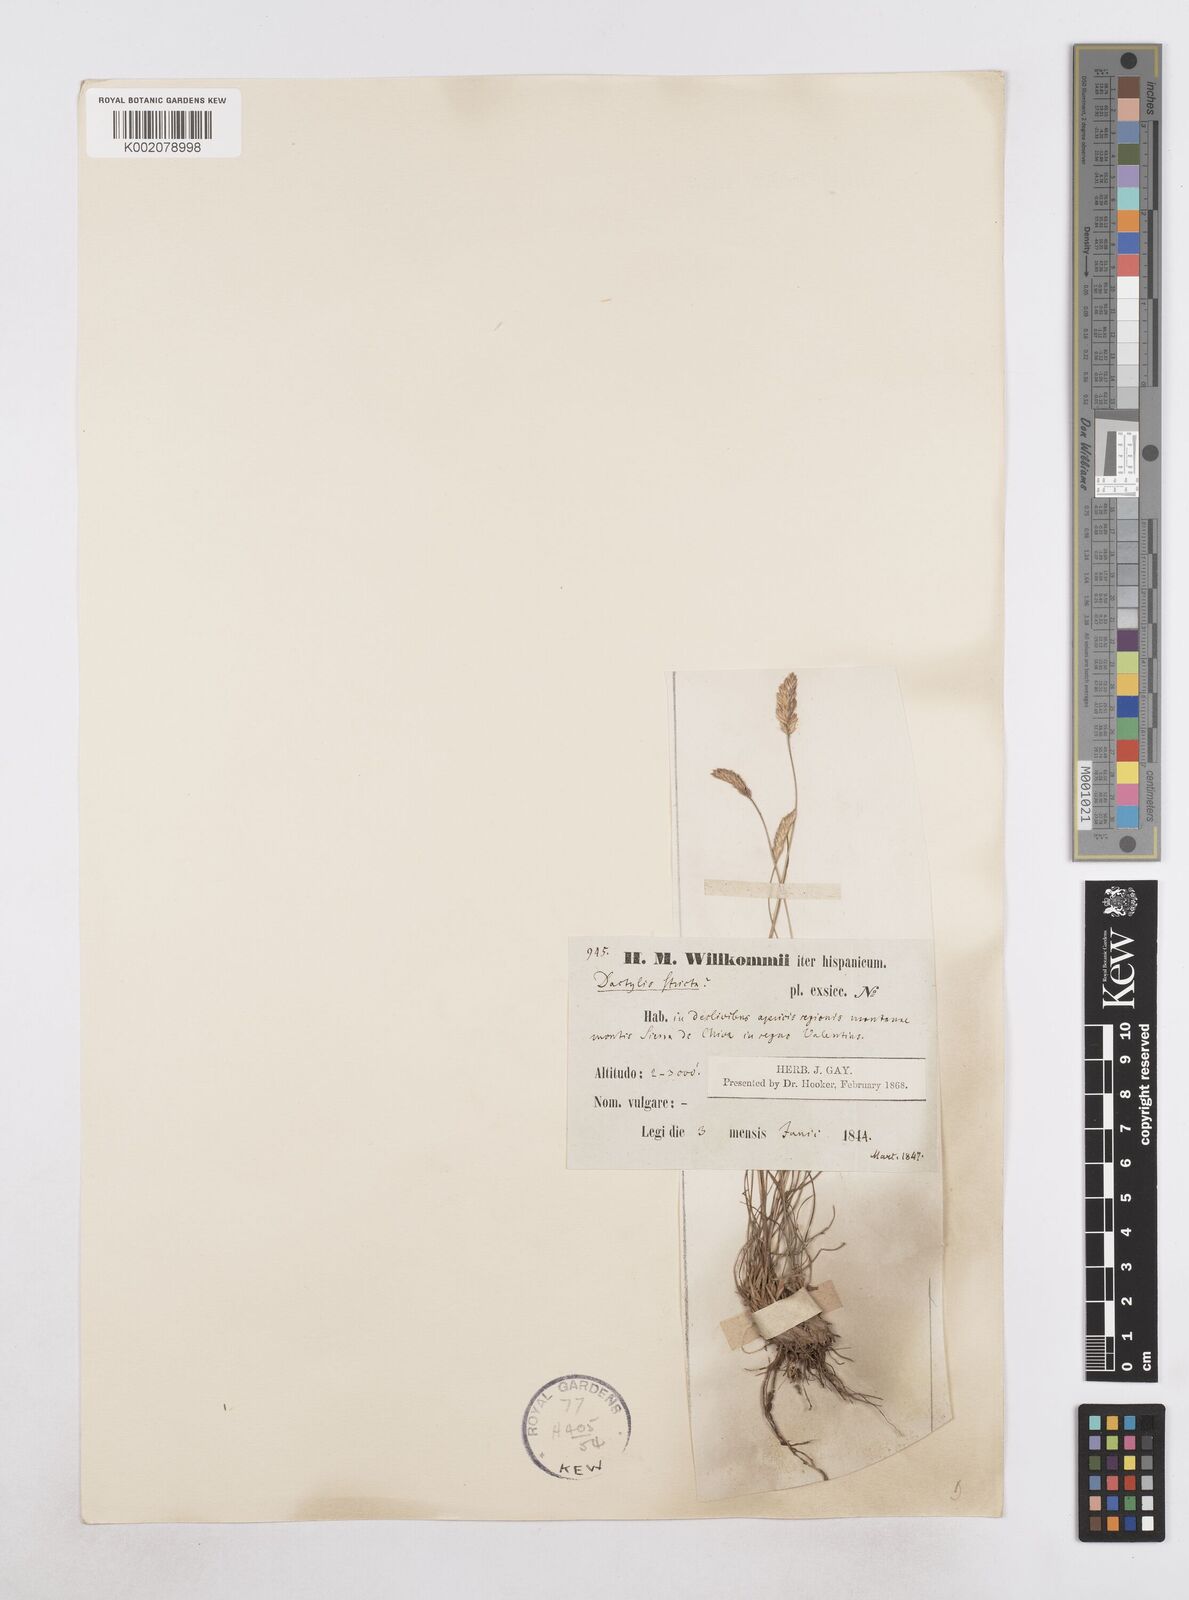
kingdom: Plantae
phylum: Tracheophyta
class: Liliopsida
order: Poales
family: Poaceae
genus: Dactylis
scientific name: Dactylis glomerata
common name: Orchardgrass
